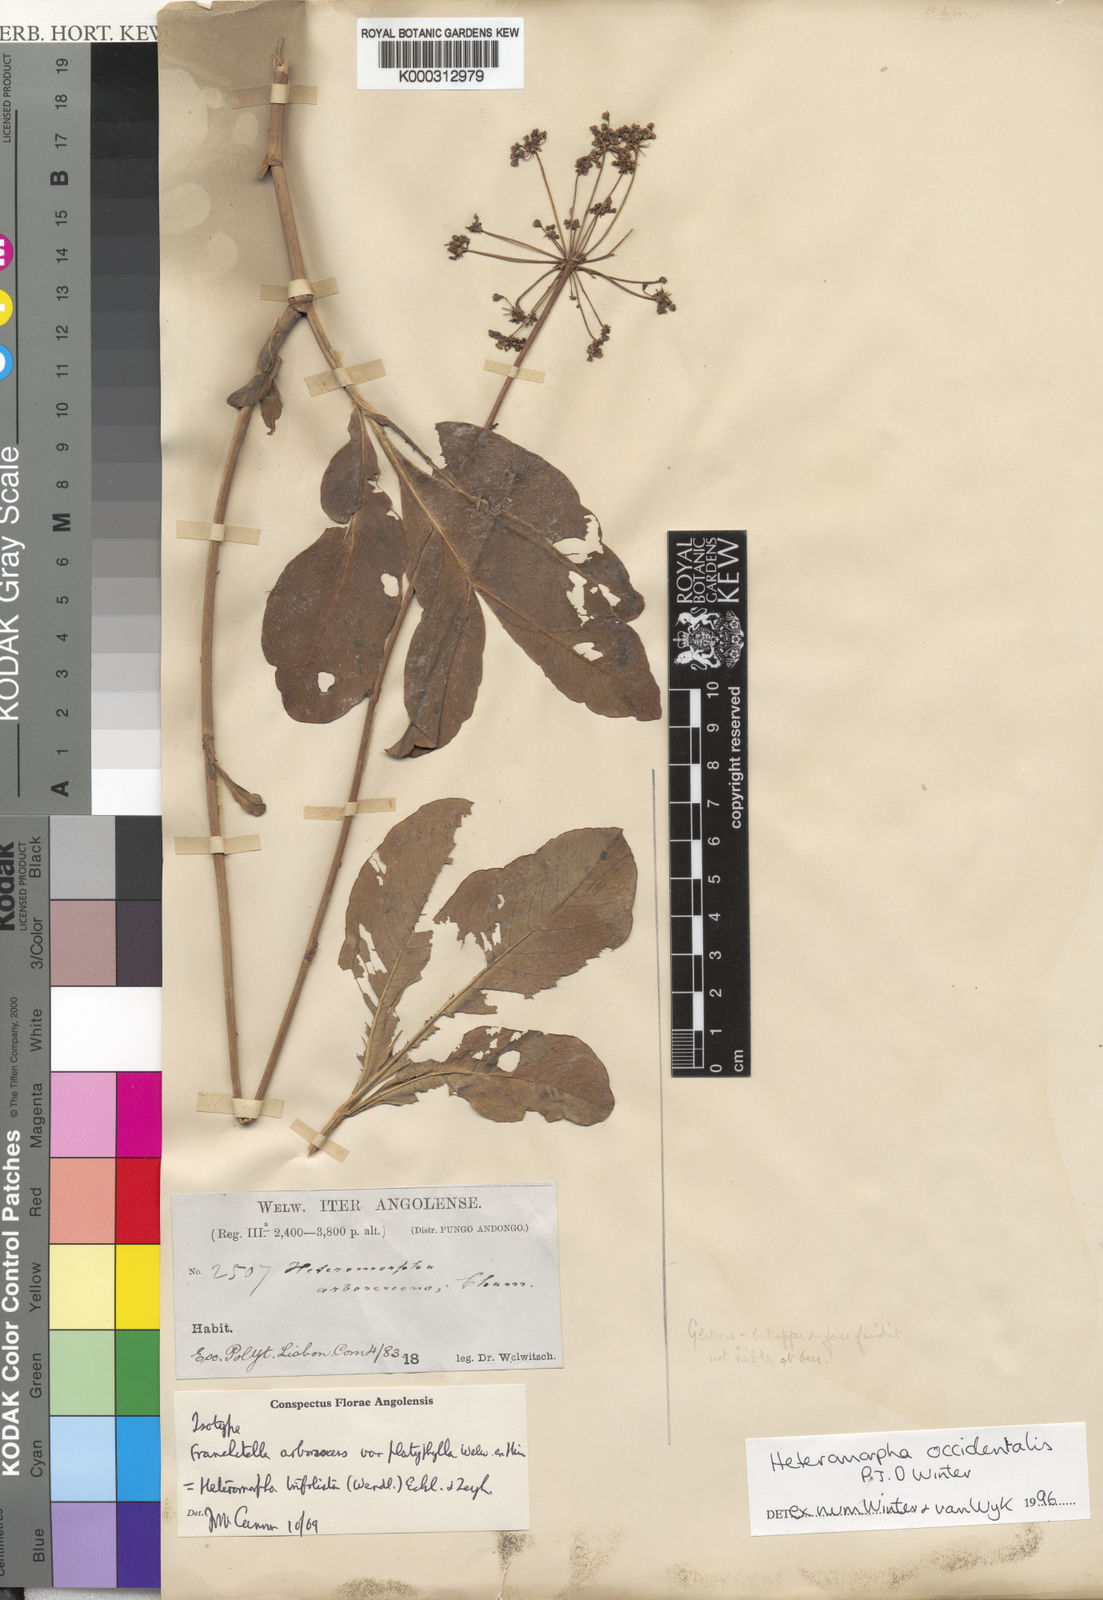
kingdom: Plantae
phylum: Tracheophyta
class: Magnoliopsida
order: Apiales
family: Apiaceae
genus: Heteromorpha
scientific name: Heteromorpha occidentalis
